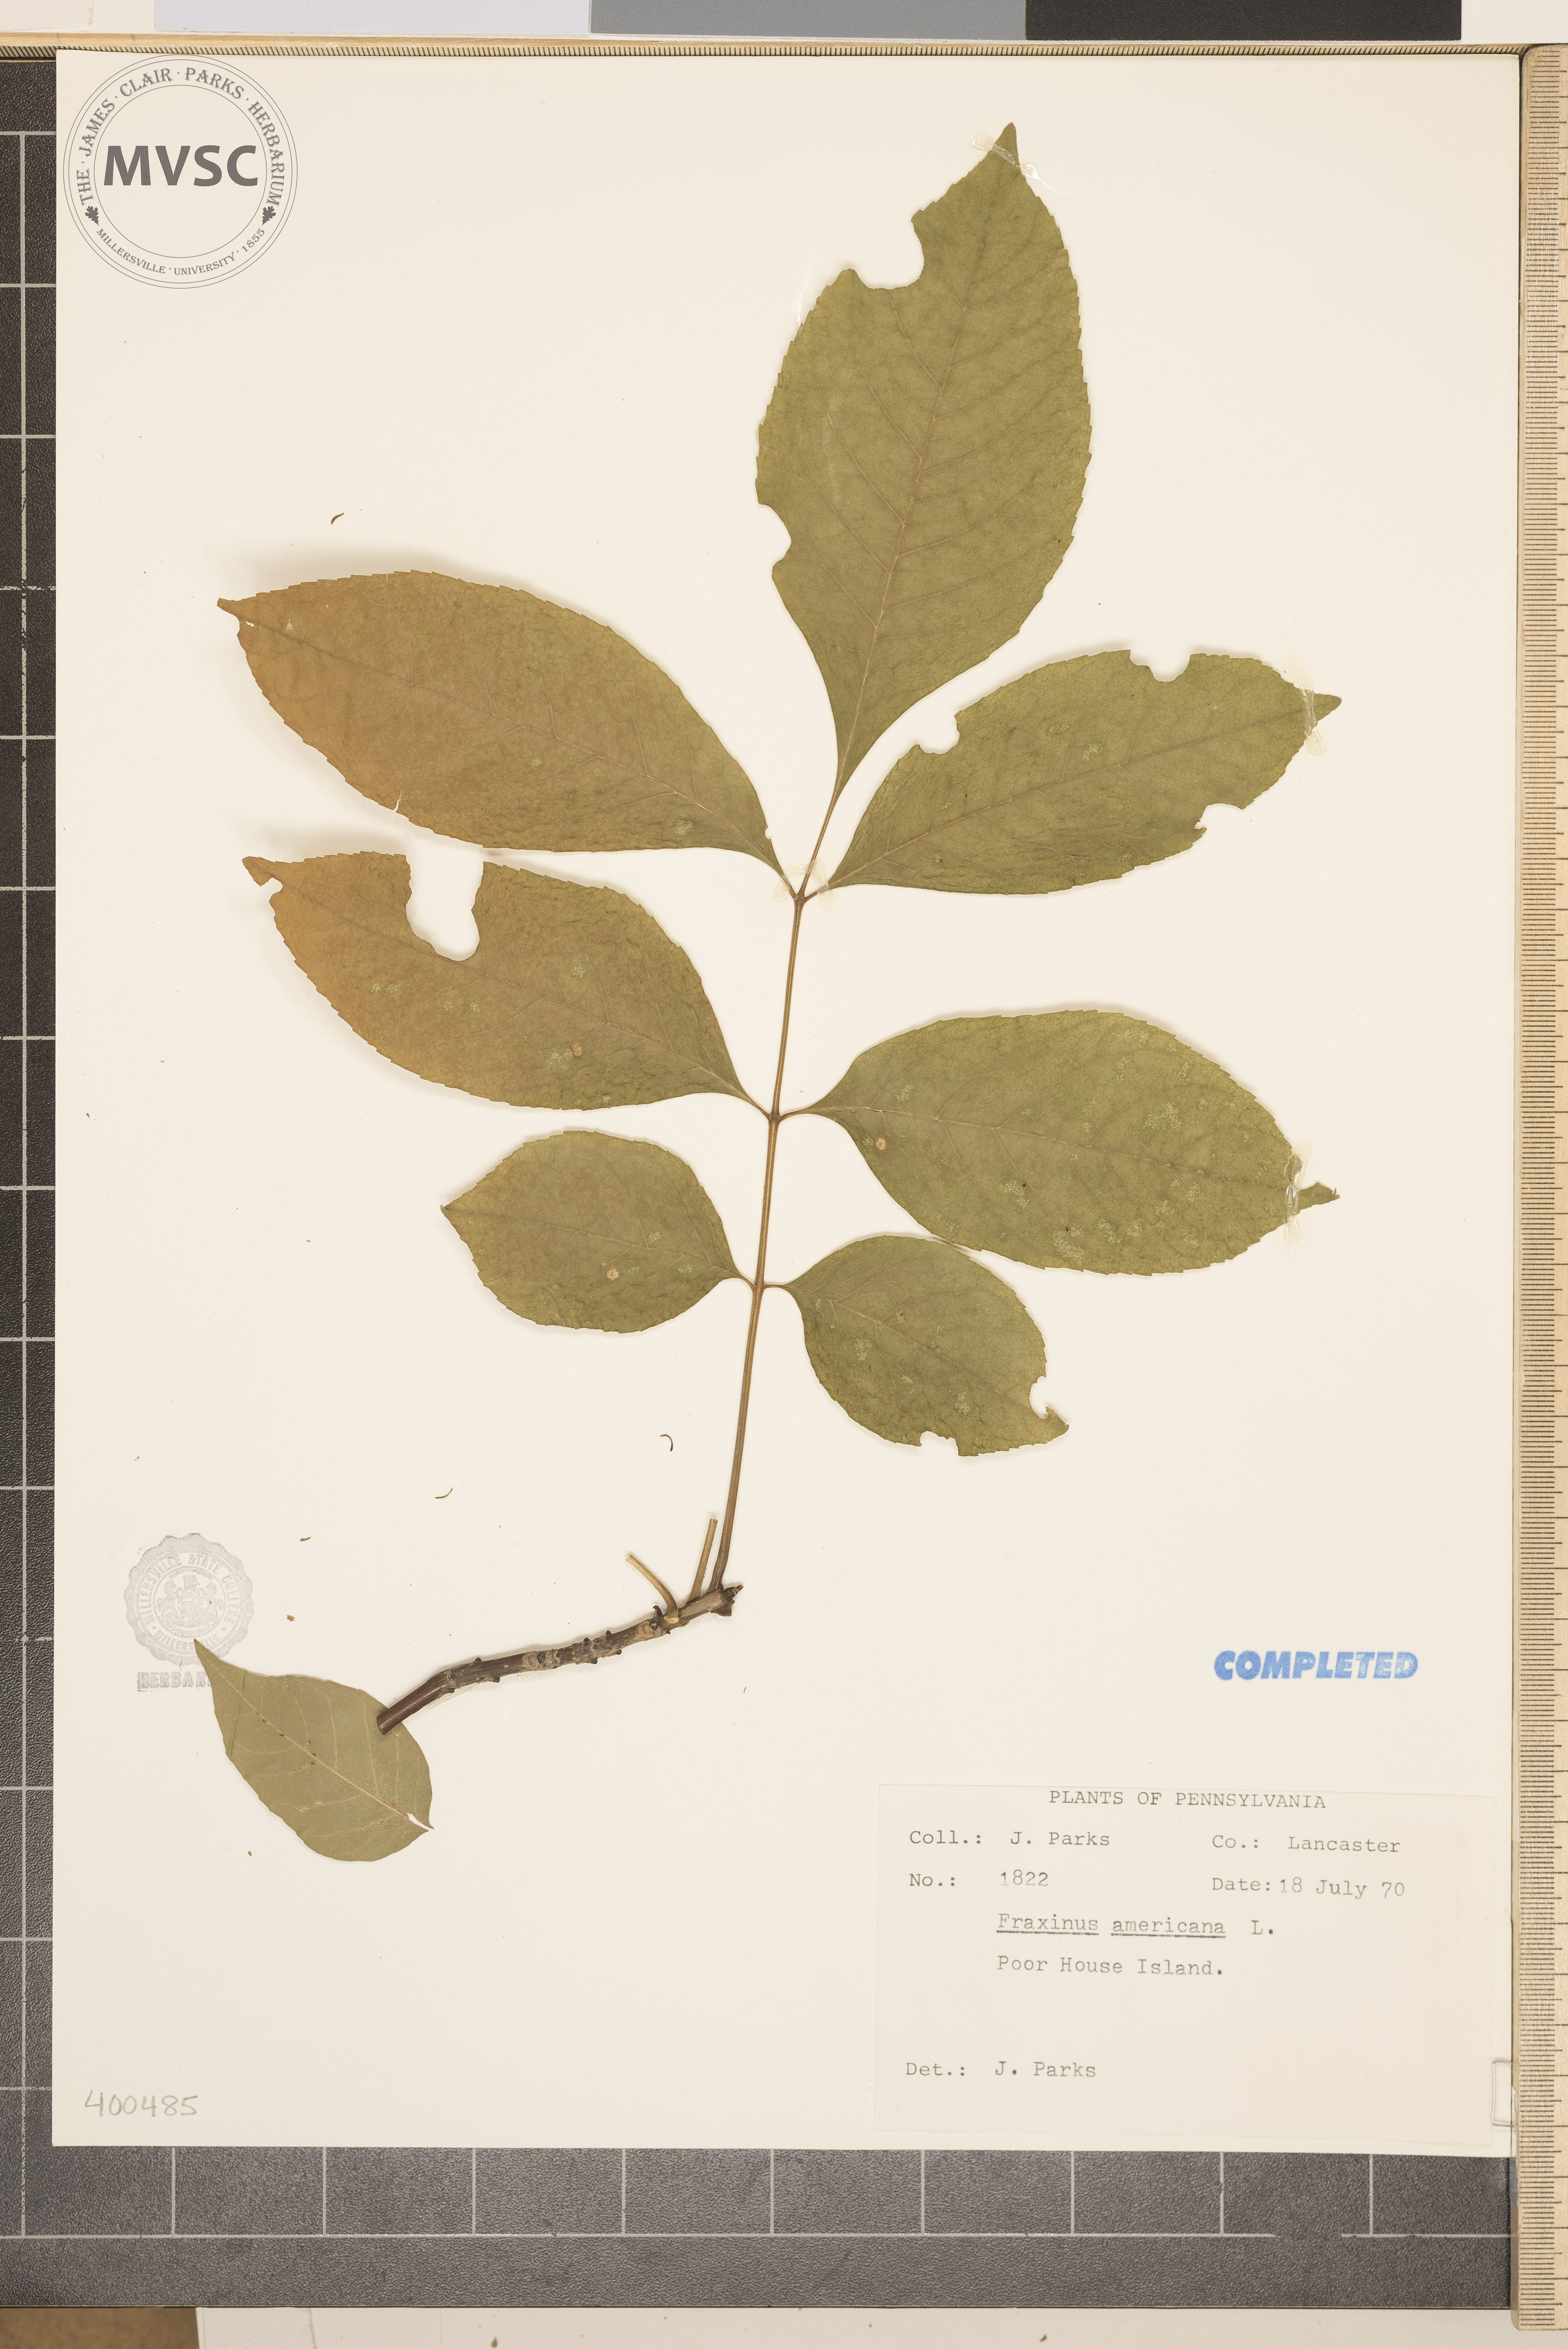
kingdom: Plantae
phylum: Tracheophyta
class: Magnoliopsida
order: Lamiales
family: Oleaceae
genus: Fraxinus
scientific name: Fraxinus americana
